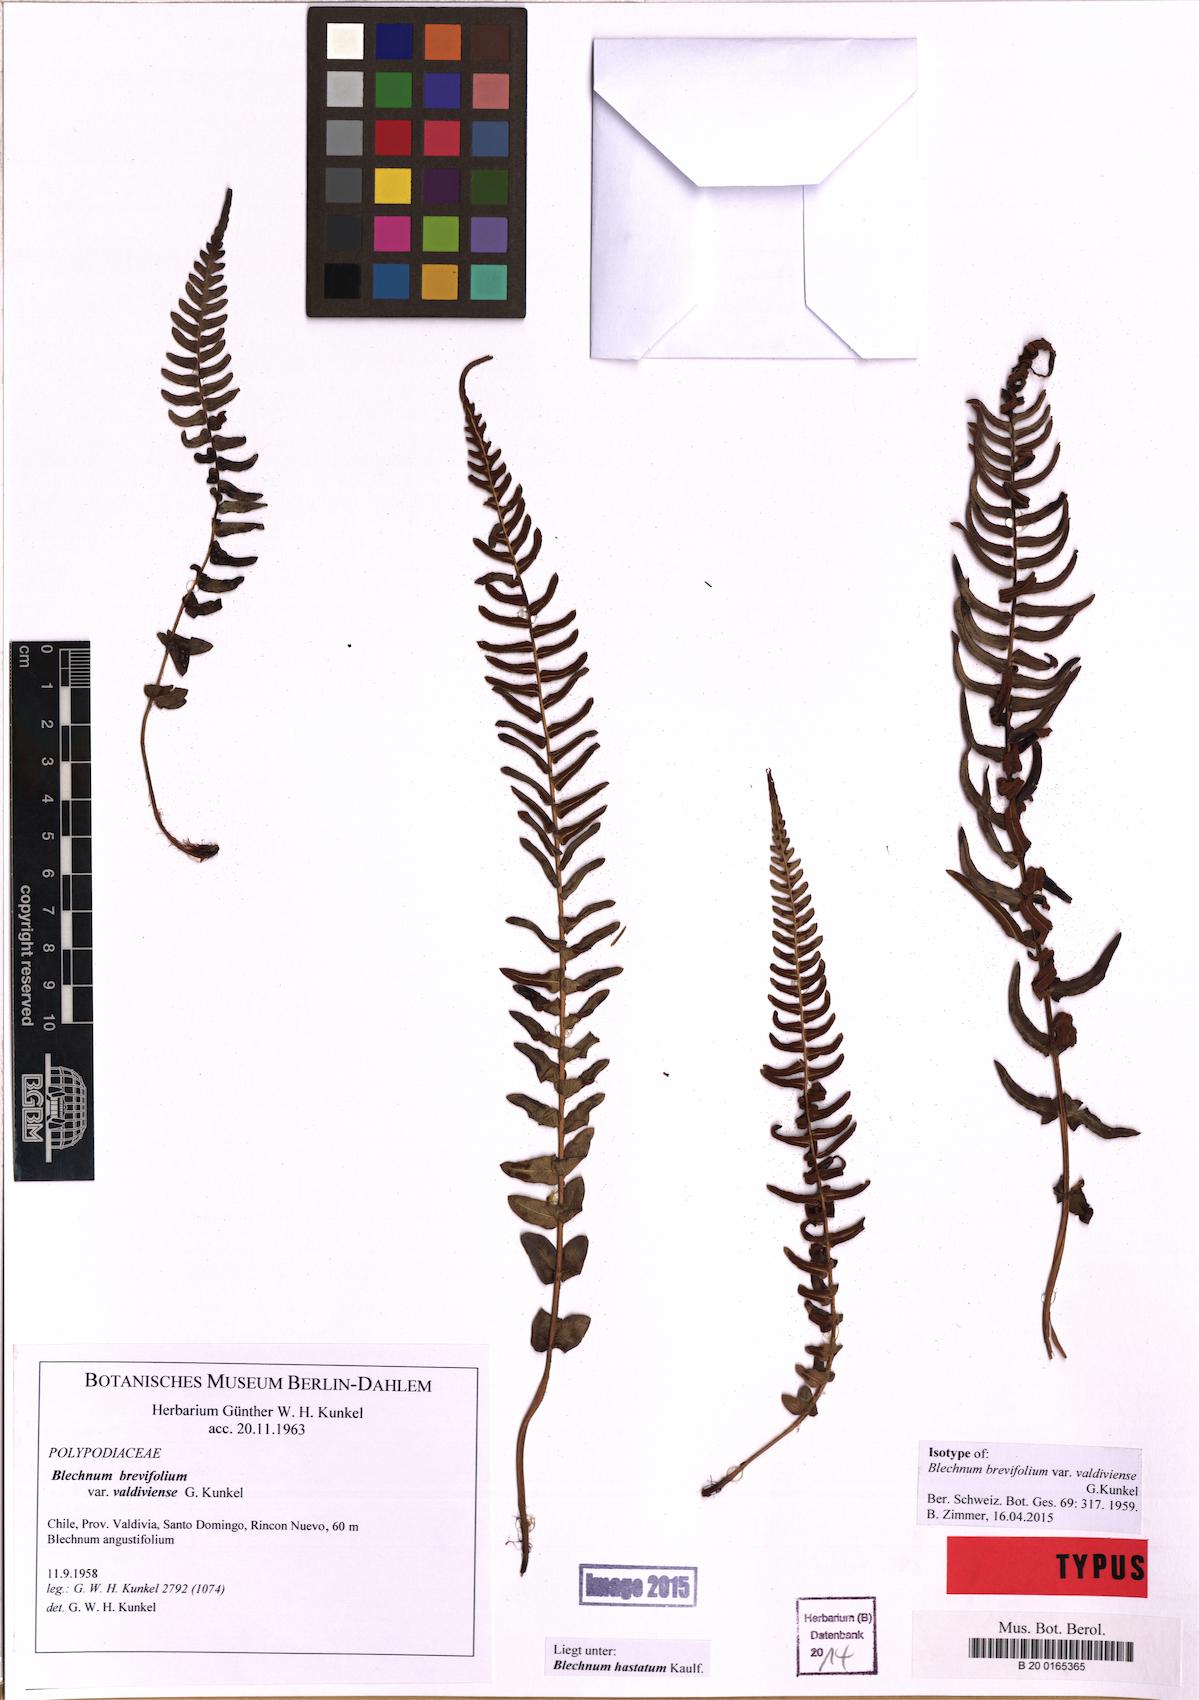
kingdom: Plantae
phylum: Tracheophyta
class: Polypodiopsida
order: Polypodiales
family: Blechnaceae
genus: Blechnum
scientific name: Blechnum hastatum
